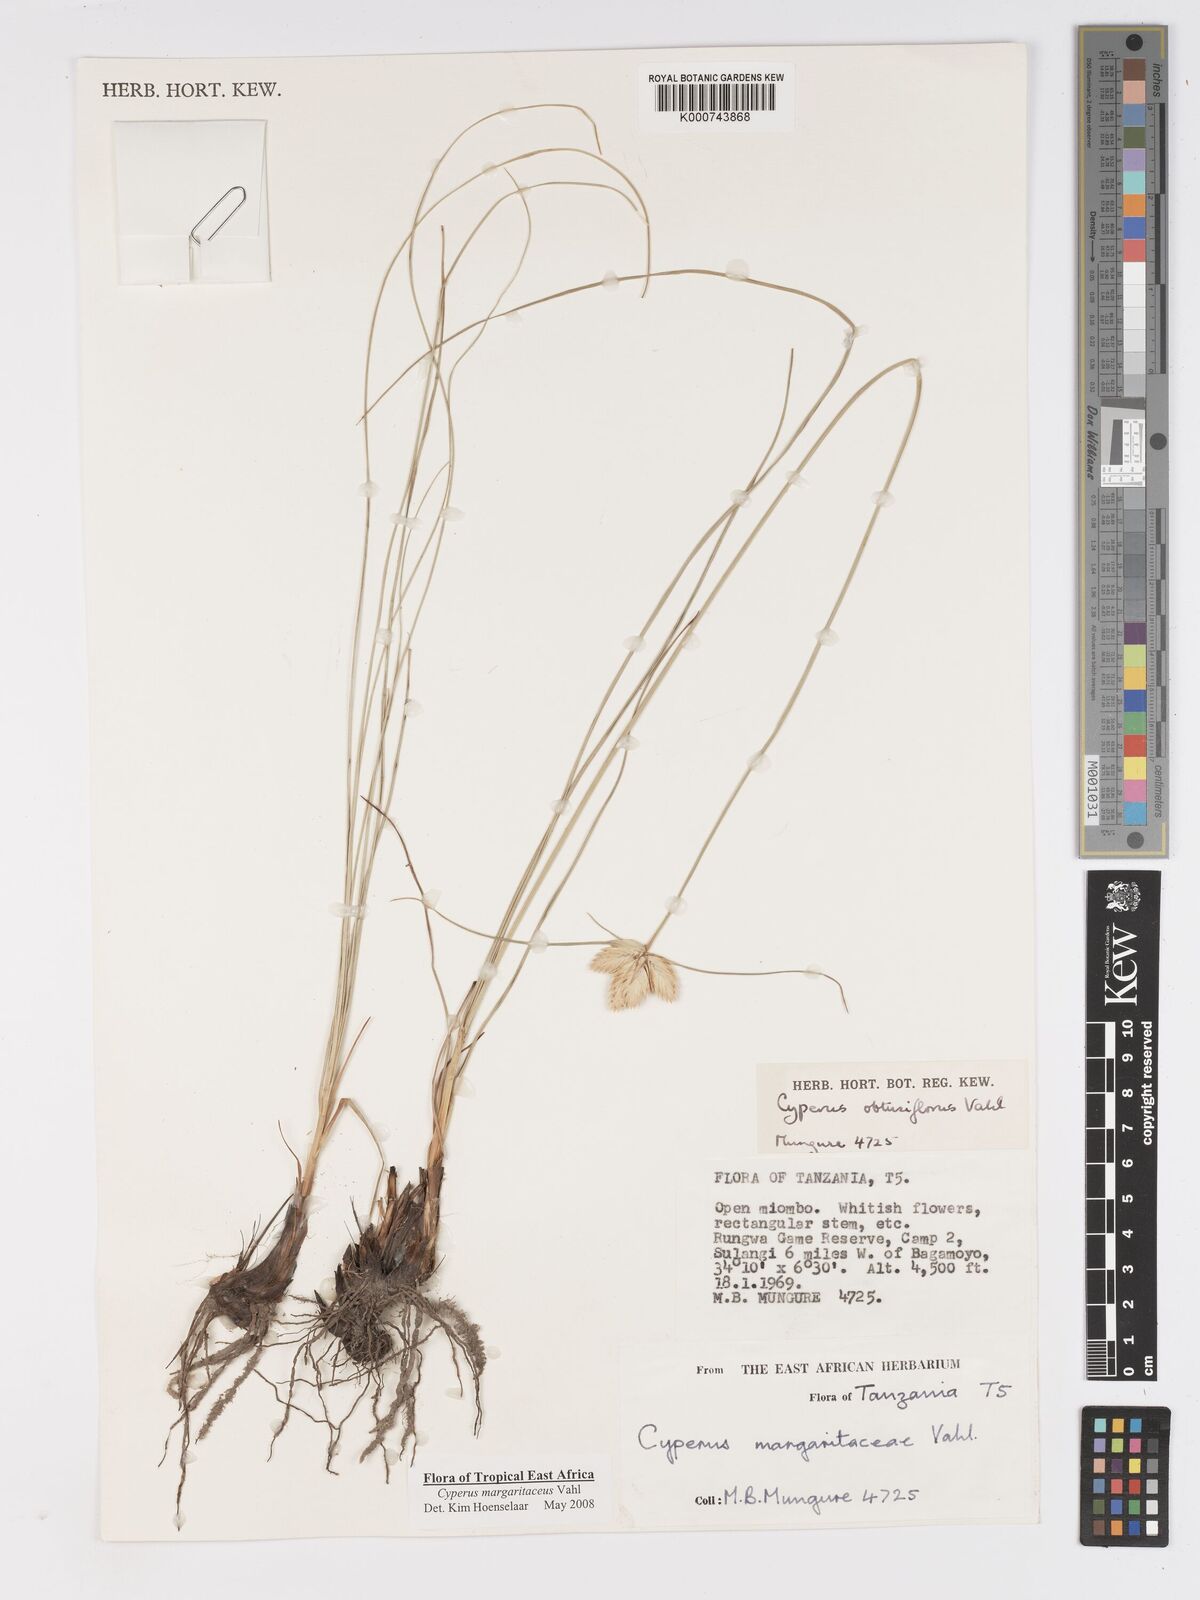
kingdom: Plantae
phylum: Tracheophyta
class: Liliopsida
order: Poales
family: Cyperaceae
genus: Cyperus
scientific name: Cyperus margaritaceus
